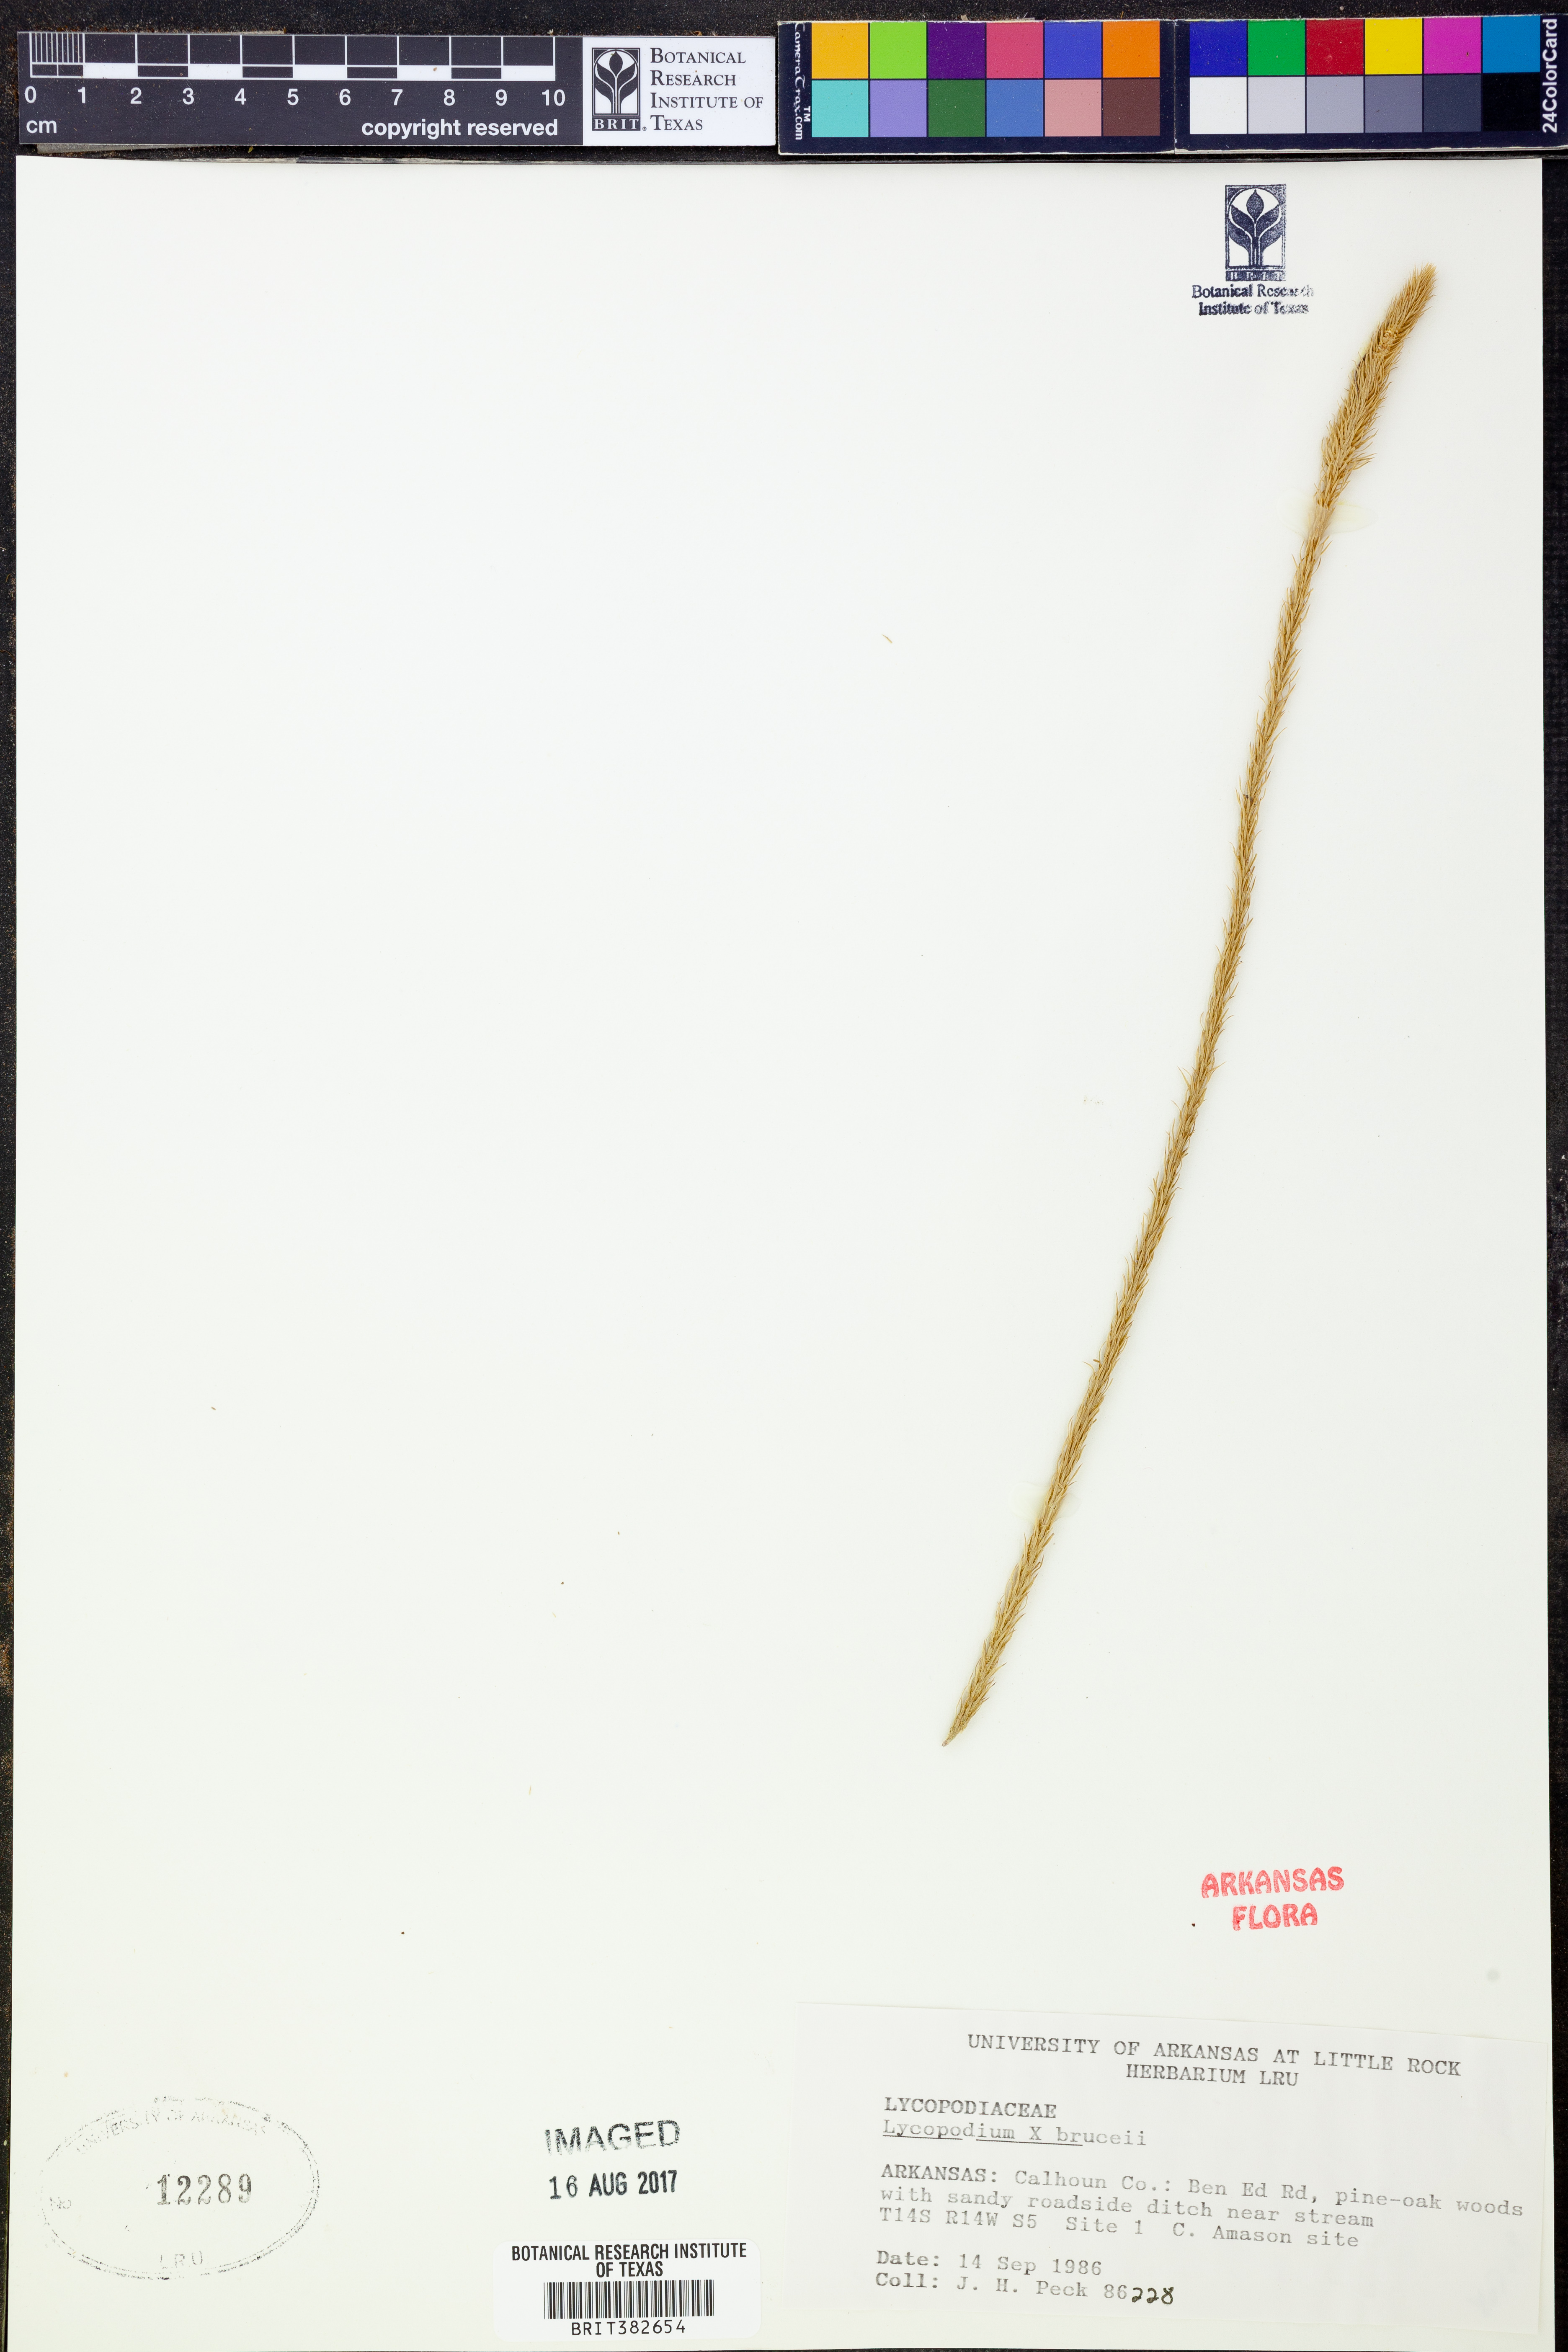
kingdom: Plantae
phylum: Tracheophyta
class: Lycopodiopsida
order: Lycopodiales
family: Lycopodiaceae
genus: Lycopodiella
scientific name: Lycopodiella brucei
